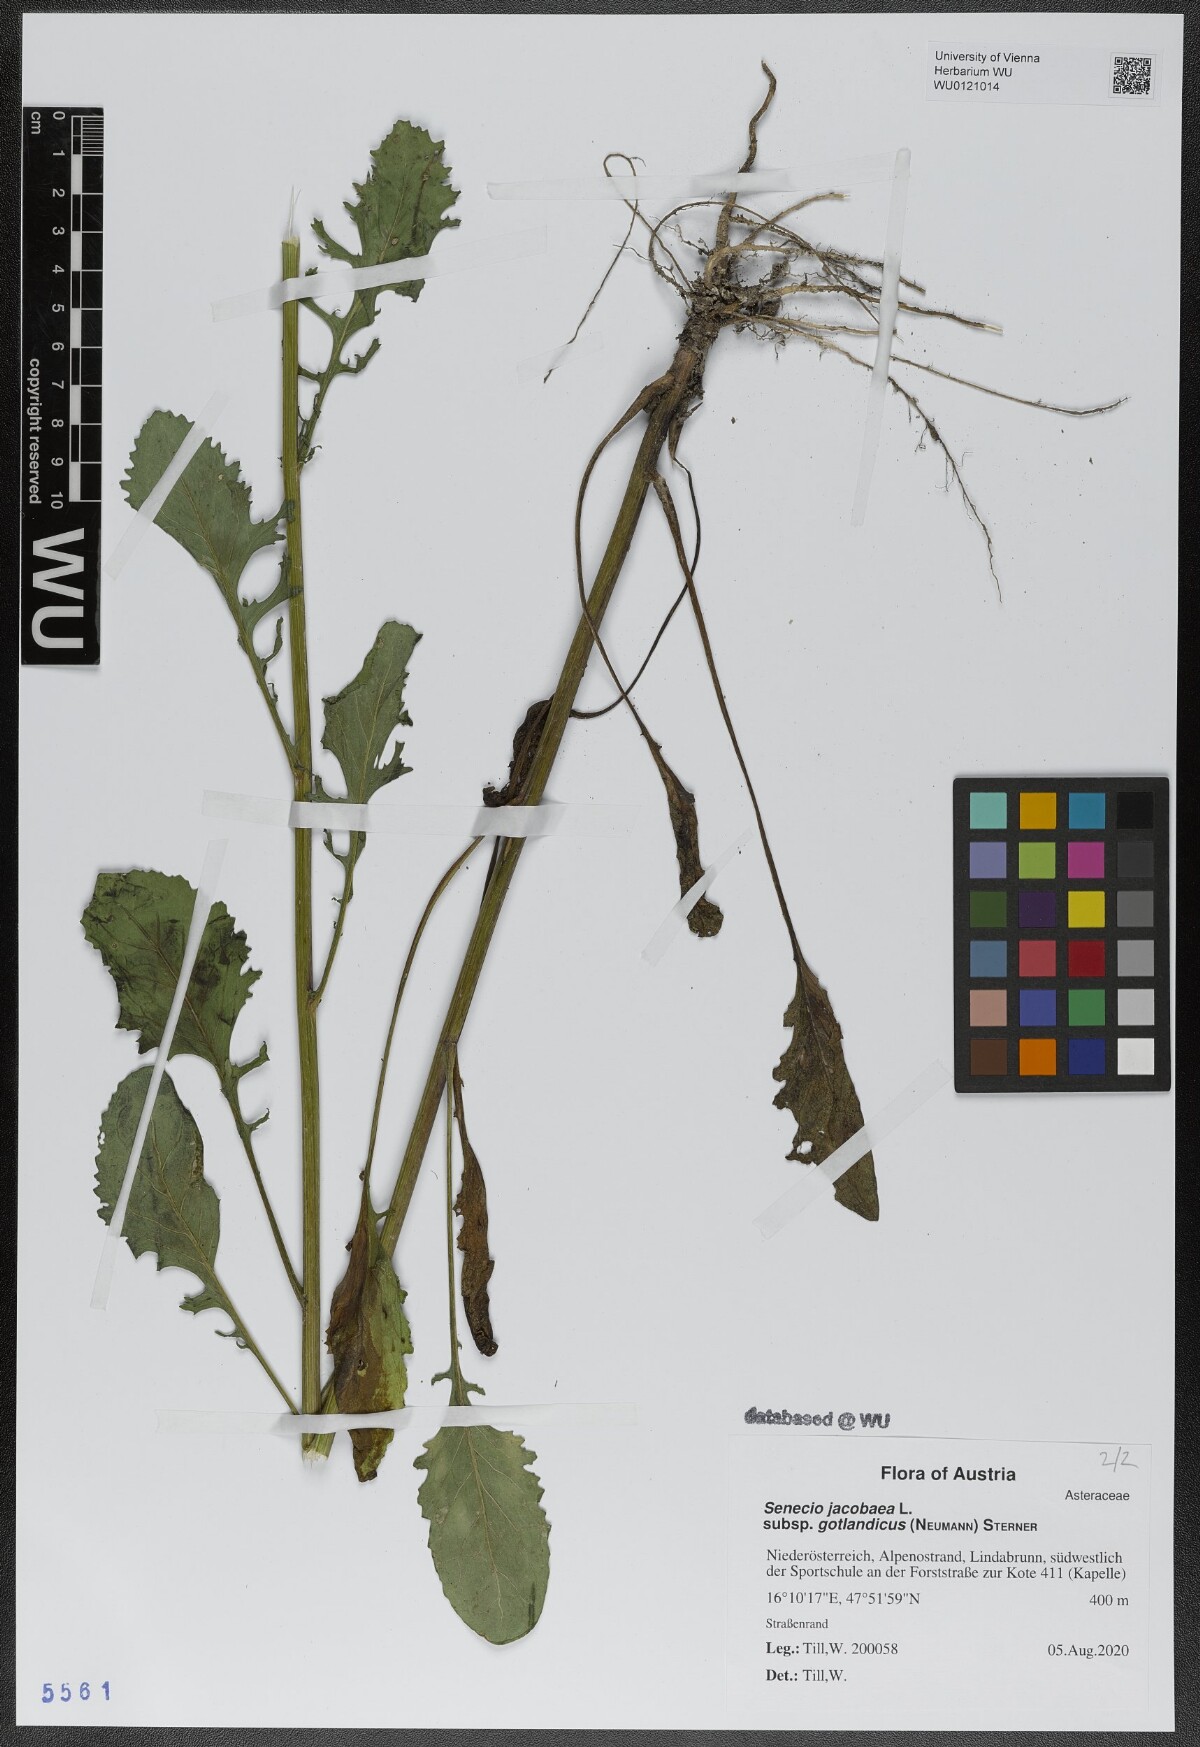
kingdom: Plantae
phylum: Tracheophyta
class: Magnoliopsida
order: Asterales
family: Asteraceae
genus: Jacobaea
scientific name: Jacobaea vulgaris
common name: Stinking willie
